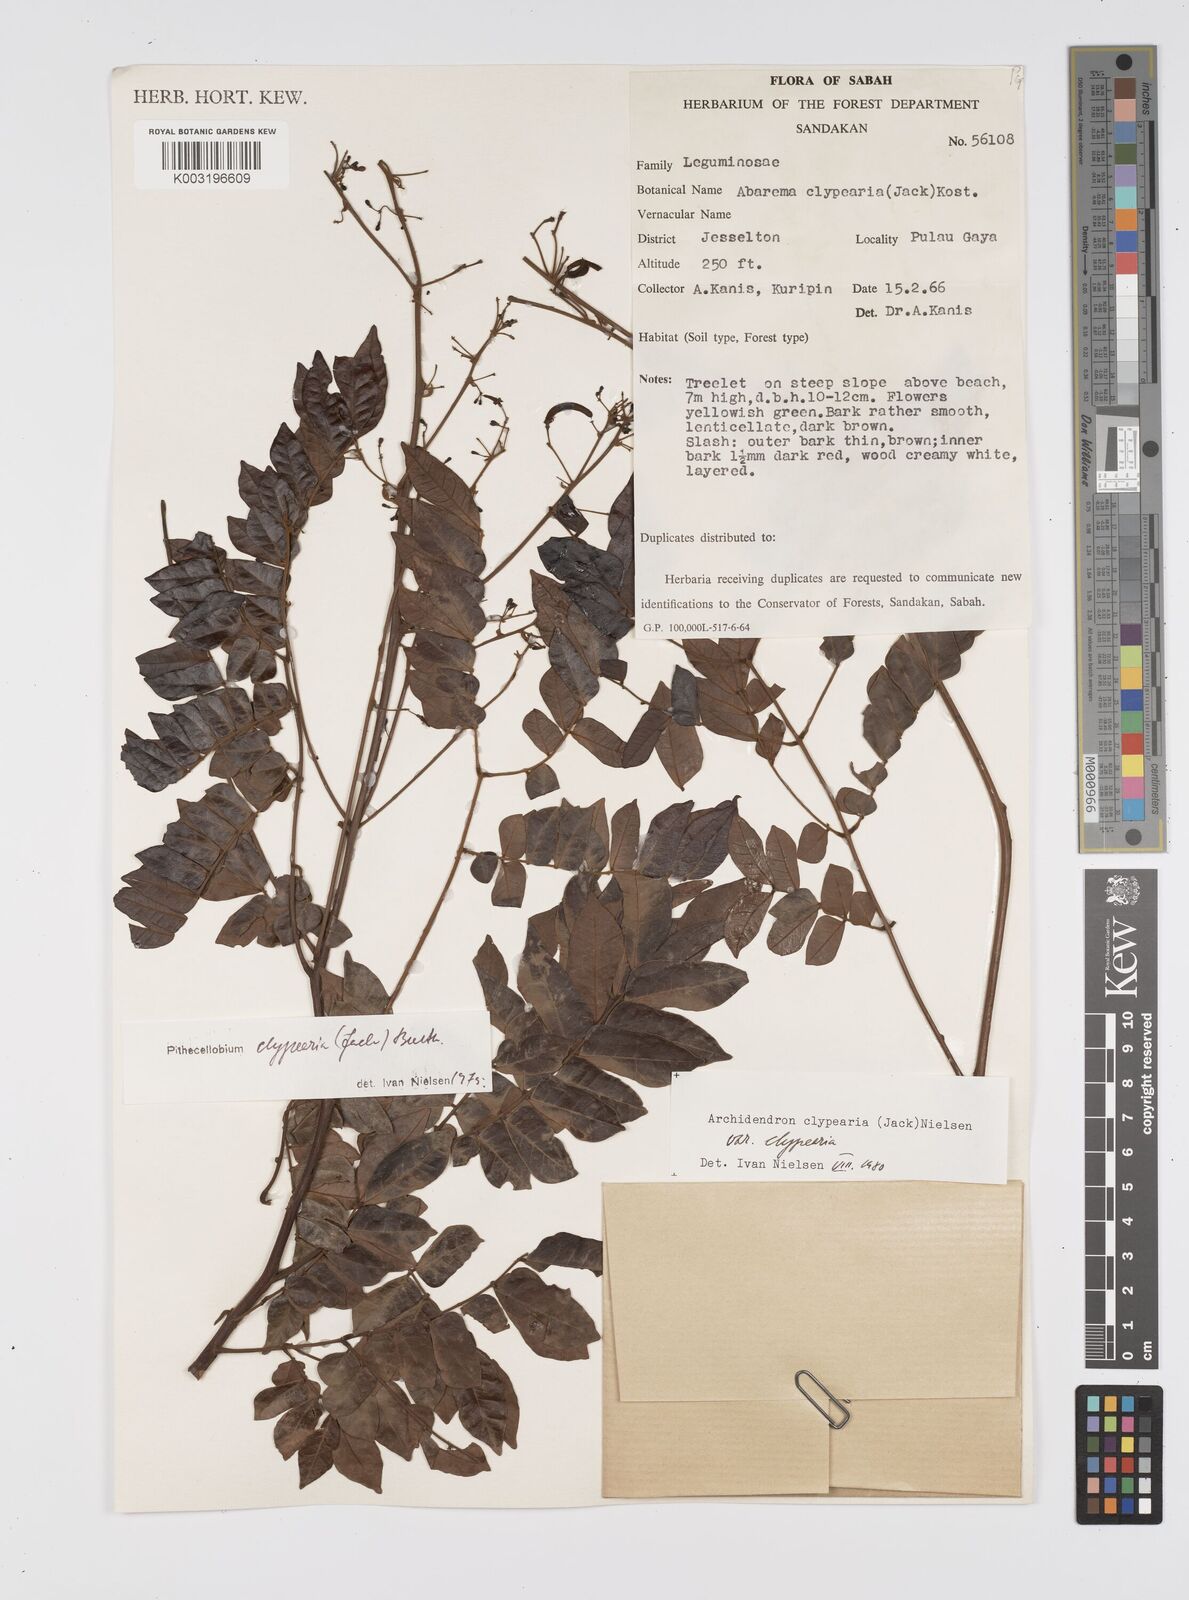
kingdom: Plantae
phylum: Tracheophyta
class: Magnoliopsida
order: Fabales
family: Fabaceae
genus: Archidendron
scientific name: Archidendron clypearia
